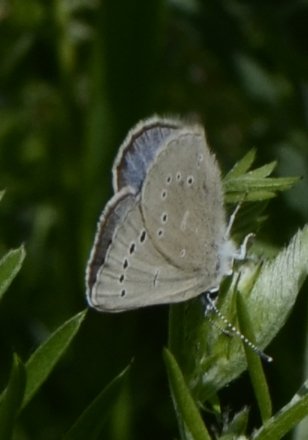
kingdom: Animalia
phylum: Arthropoda
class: Insecta
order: Lepidoptera
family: Lycaenidae
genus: Glaucopsyche
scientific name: Glaucopsyche lygdamus
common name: Silvery Blue
